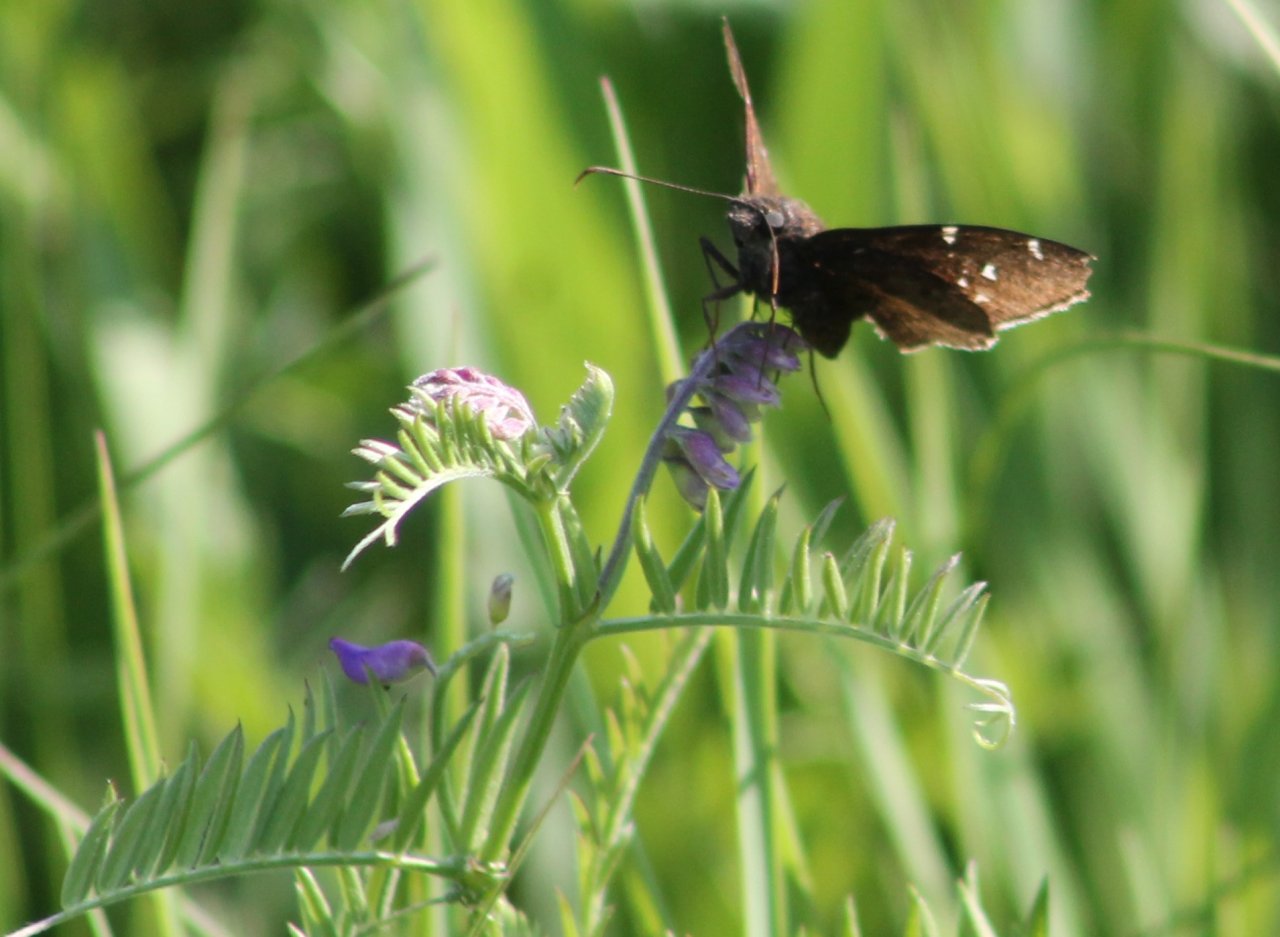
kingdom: Animalia
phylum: Arthropoda
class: Insecta
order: Lepidoptera
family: Hesperiidae
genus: Autochton
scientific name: Autochton
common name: Northern Cloudywing
